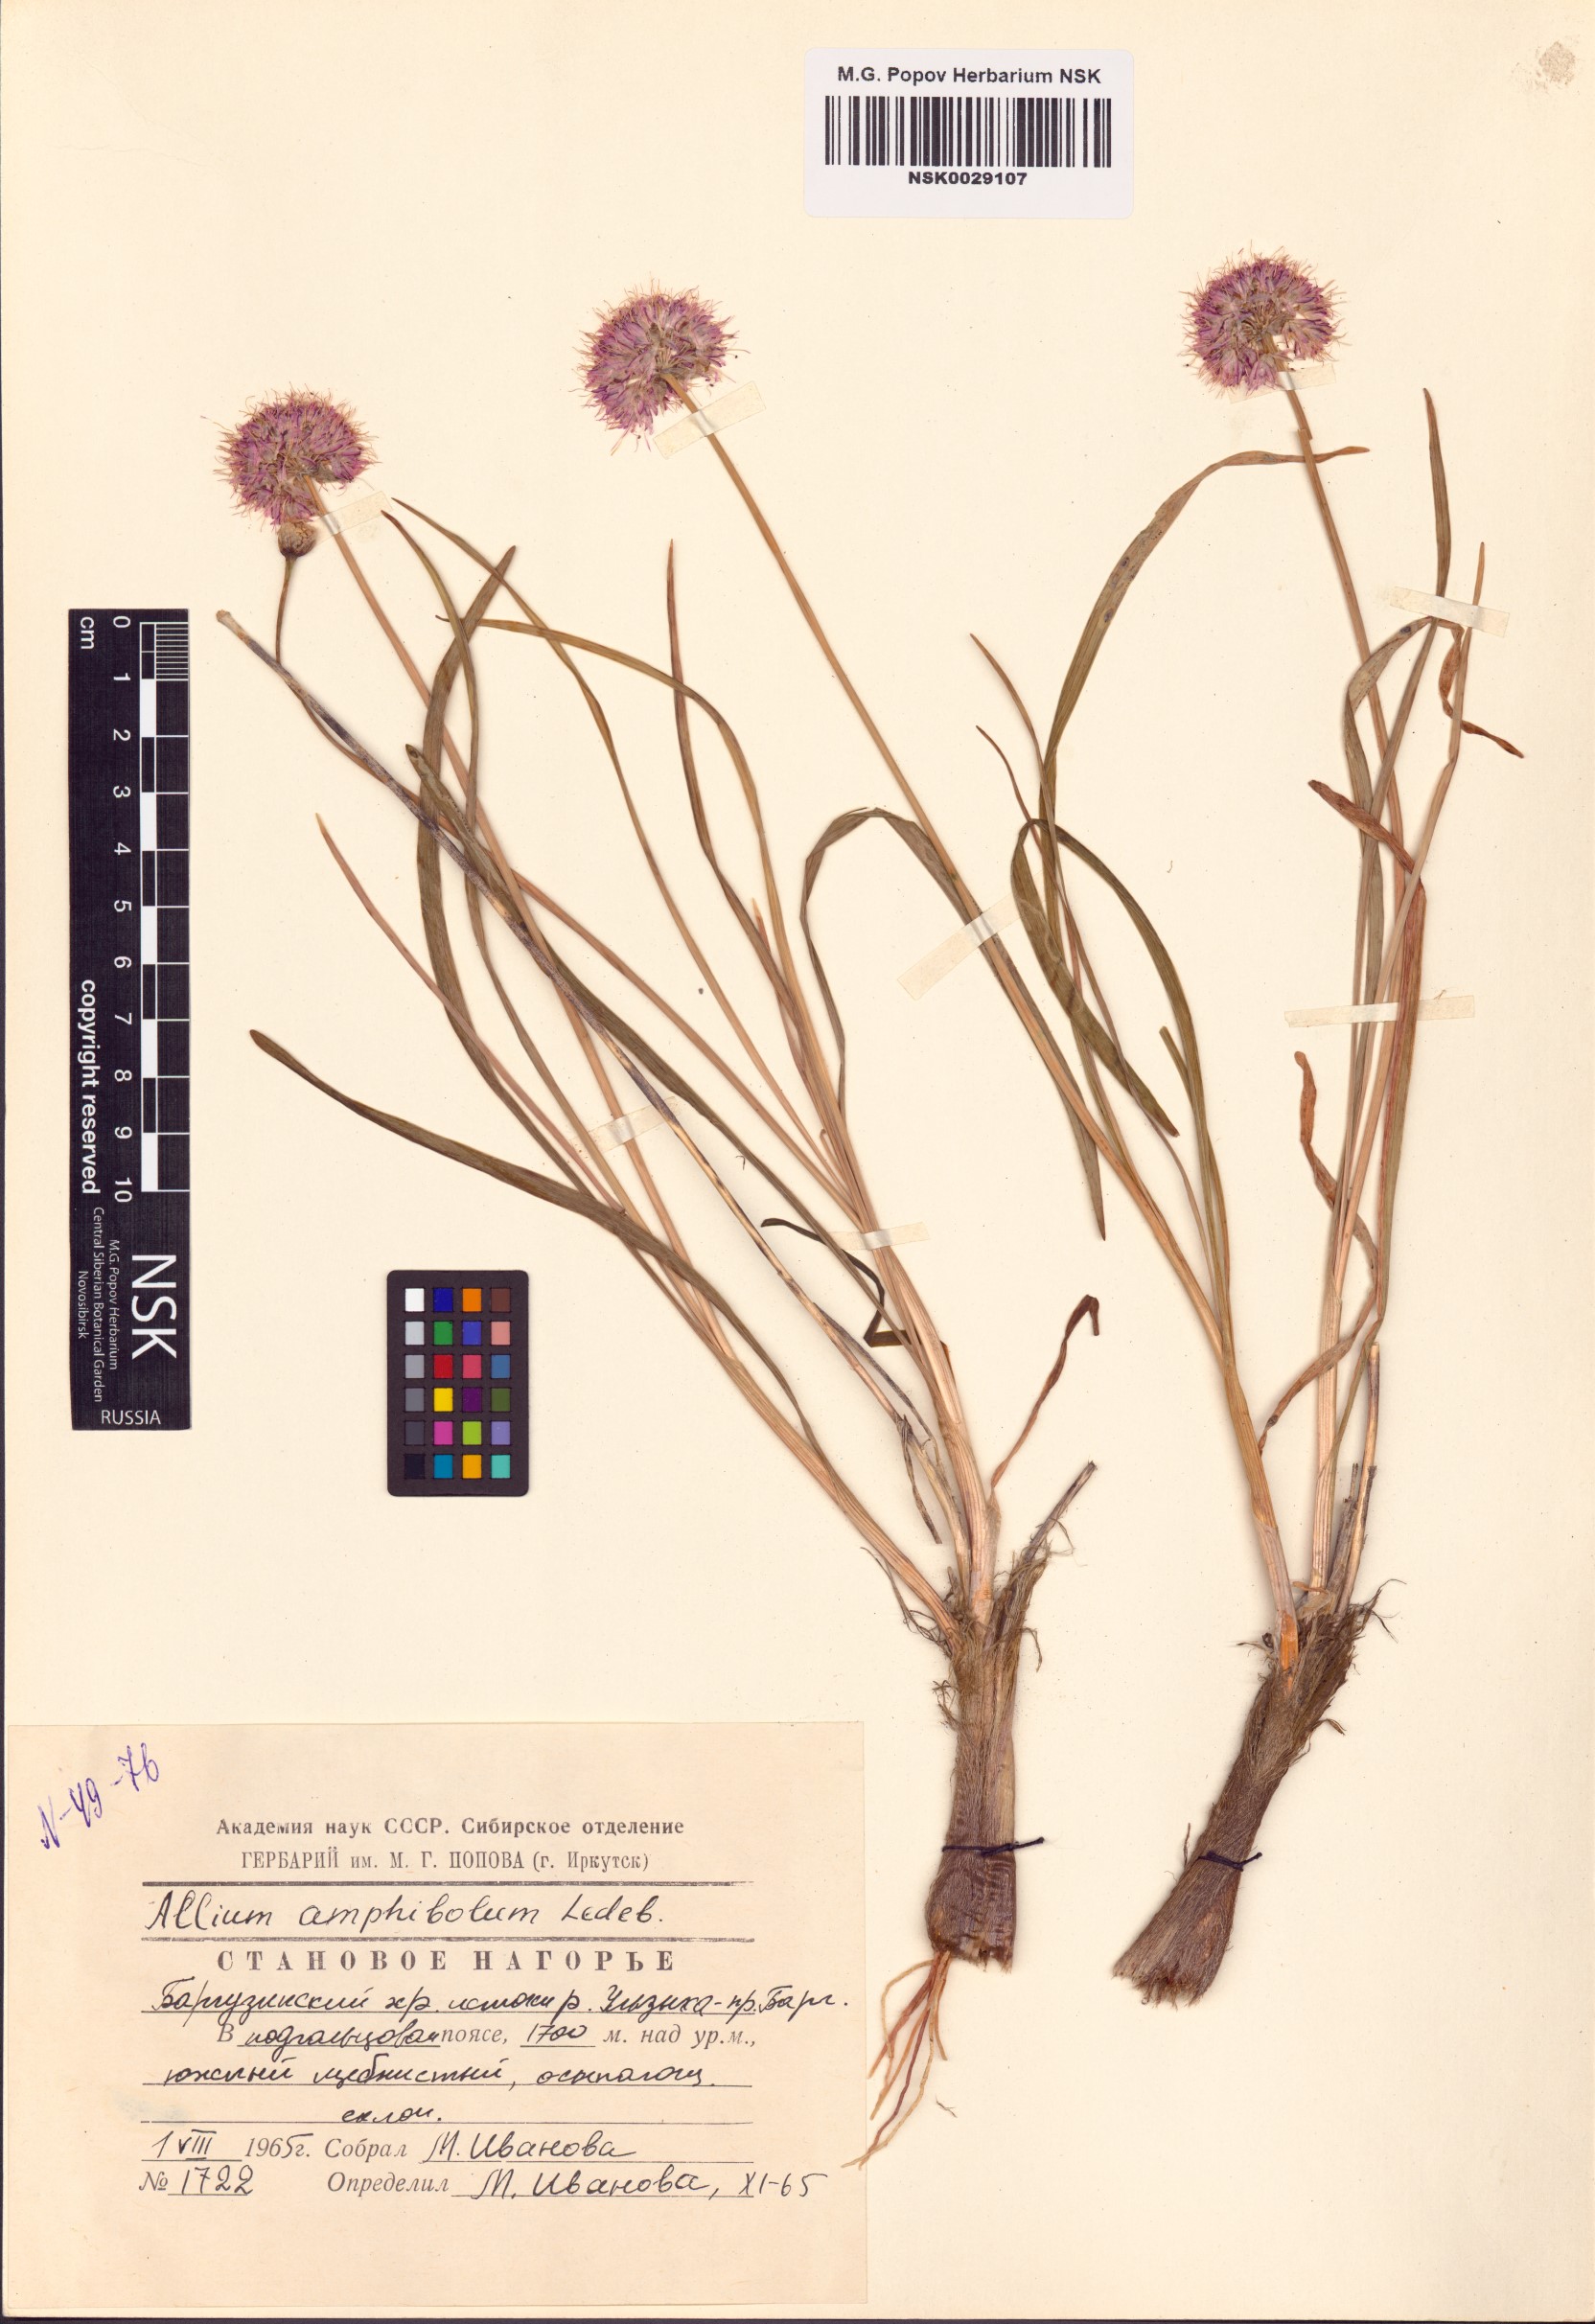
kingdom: Plantae
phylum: Tracheophyta
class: Liliopsida
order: Asparagales
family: Amaryllidaceae
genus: Allium
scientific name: Allium amphibolum
